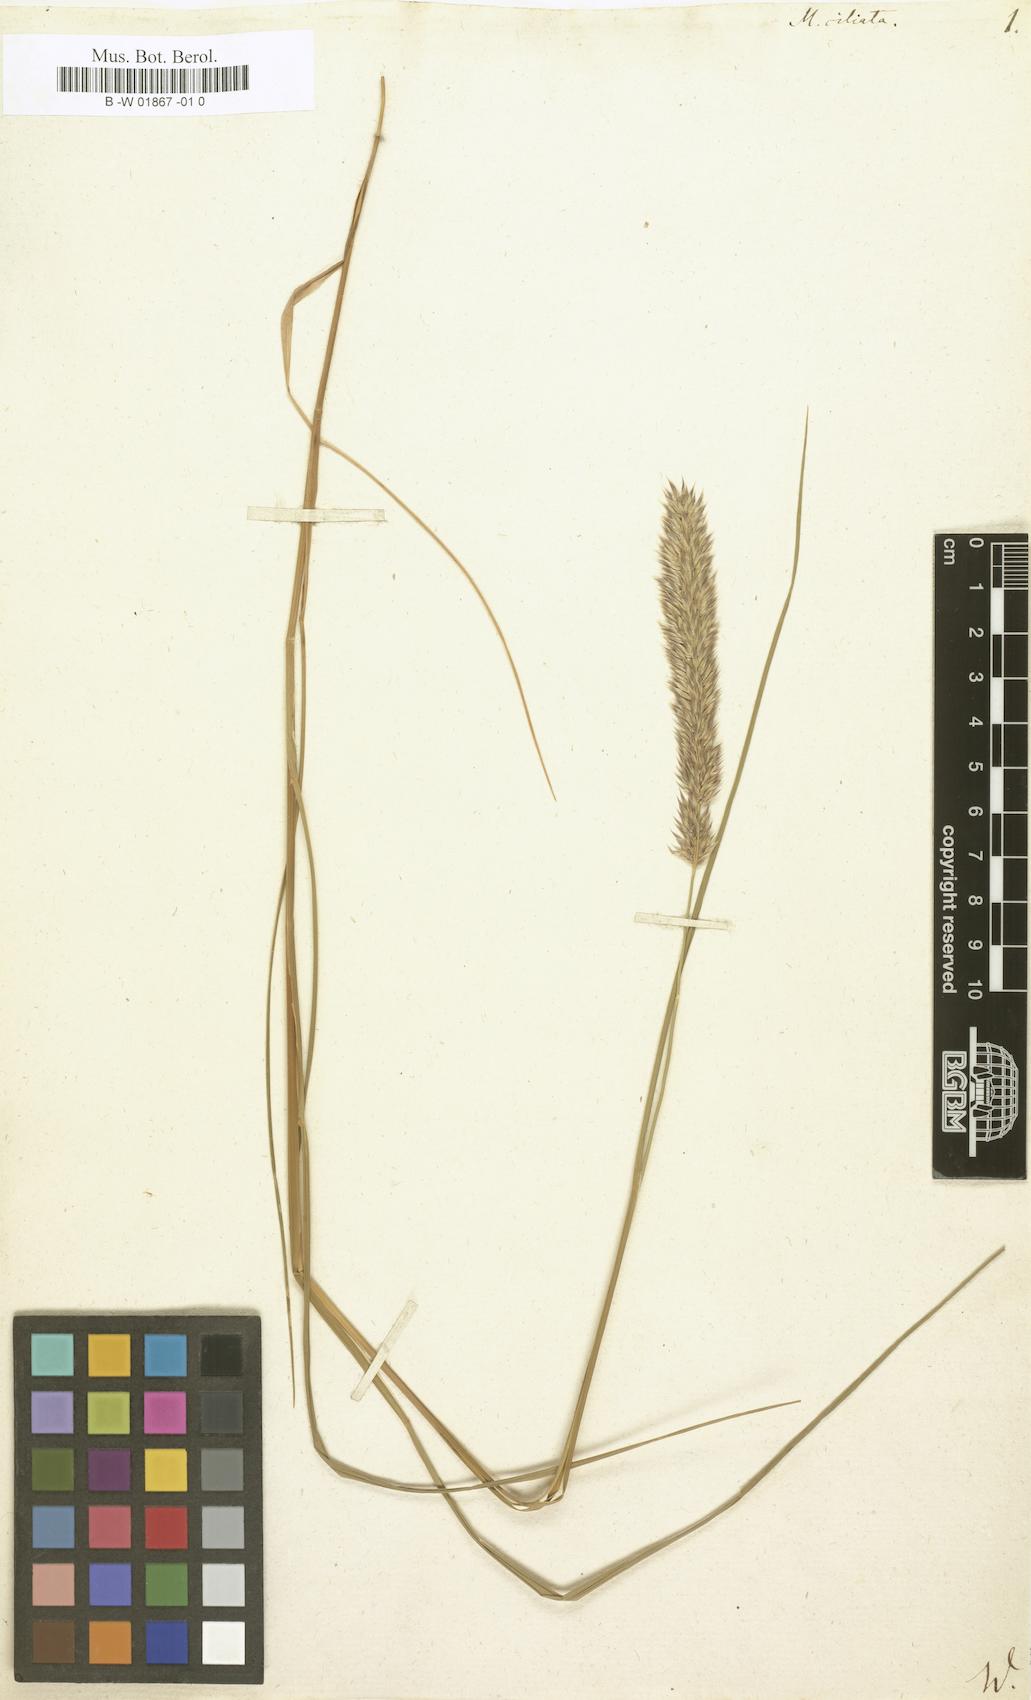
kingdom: Plantae
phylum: Tracheophyta
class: Liliopsida
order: Poales
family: Poaceae
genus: Melica
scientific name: Melica ciliata
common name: Hairy melicgrass
